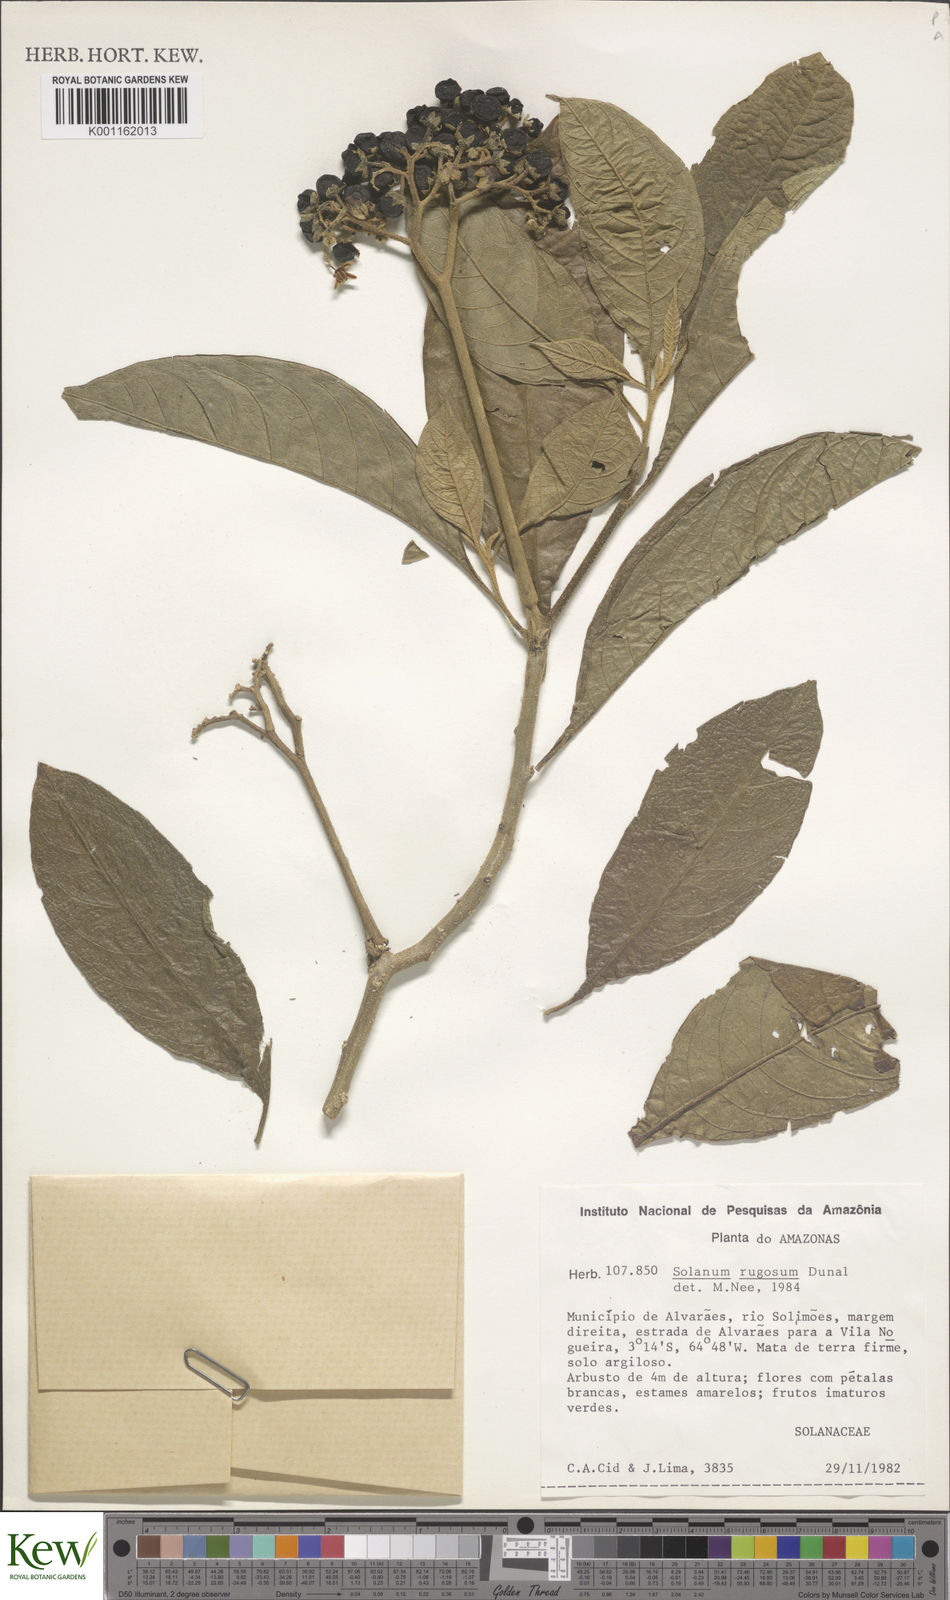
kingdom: Plantae
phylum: Tracheophyta
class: Magnoliopsida
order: Solanales
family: Solanaceae
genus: Solanum
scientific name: Solanum rugosum
